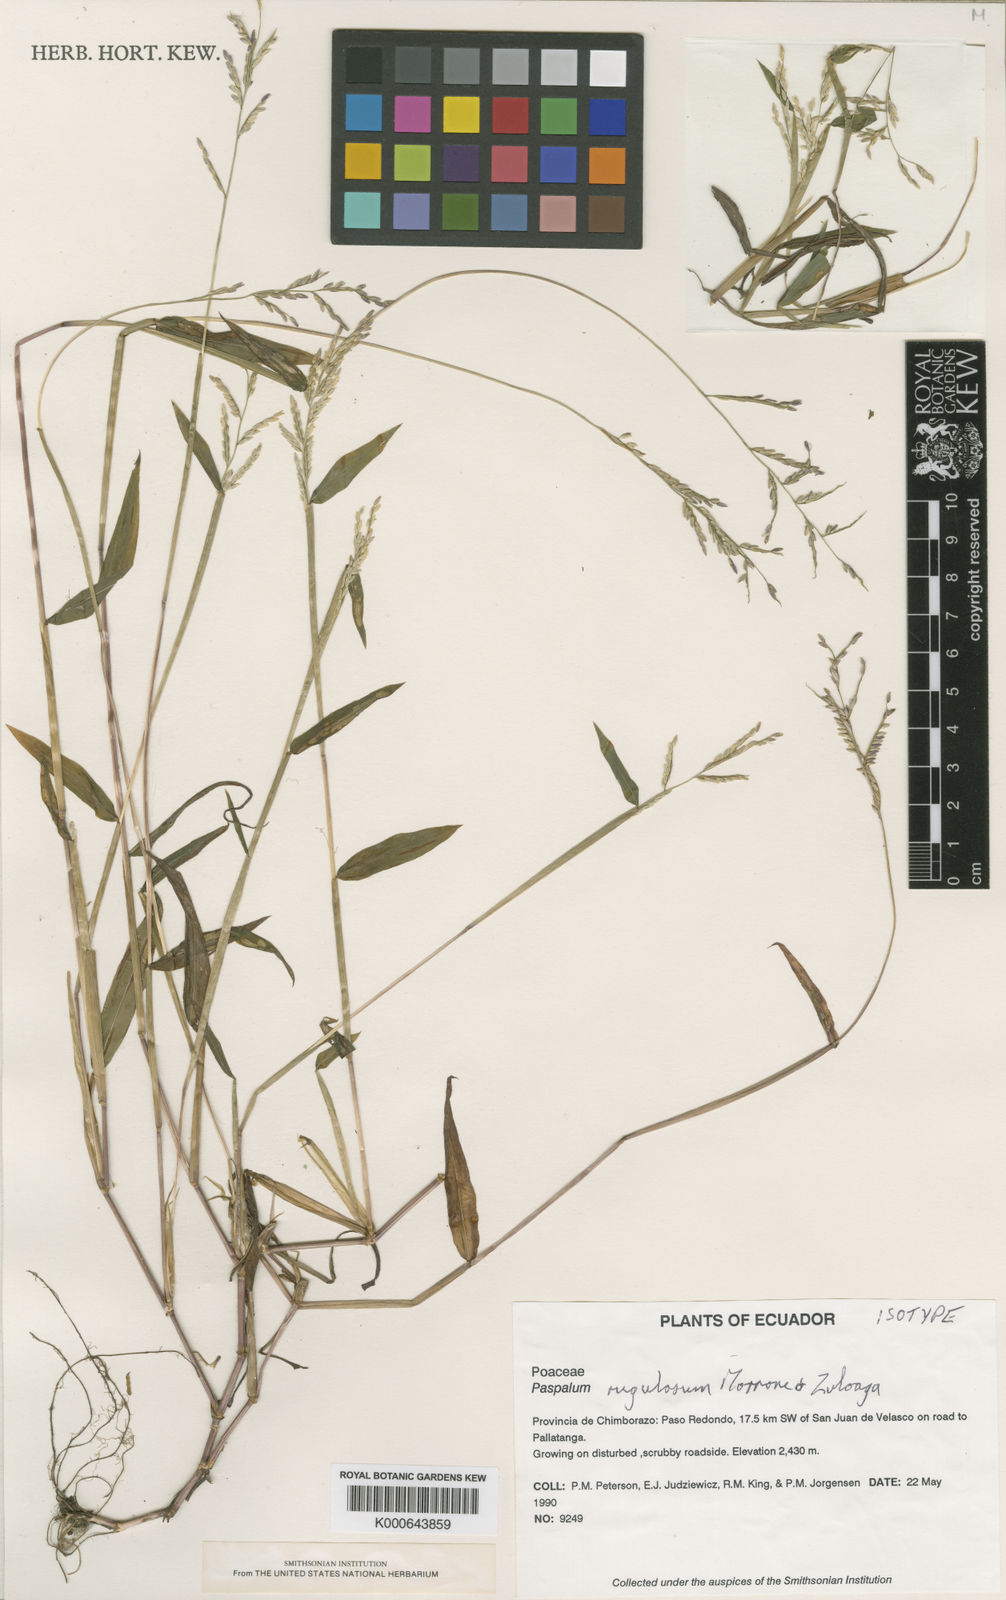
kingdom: Plantae
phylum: Tracheophyta
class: Liliopsida
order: Poales
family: Poaceae
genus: Paspalum
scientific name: Paspalum rugulosum
